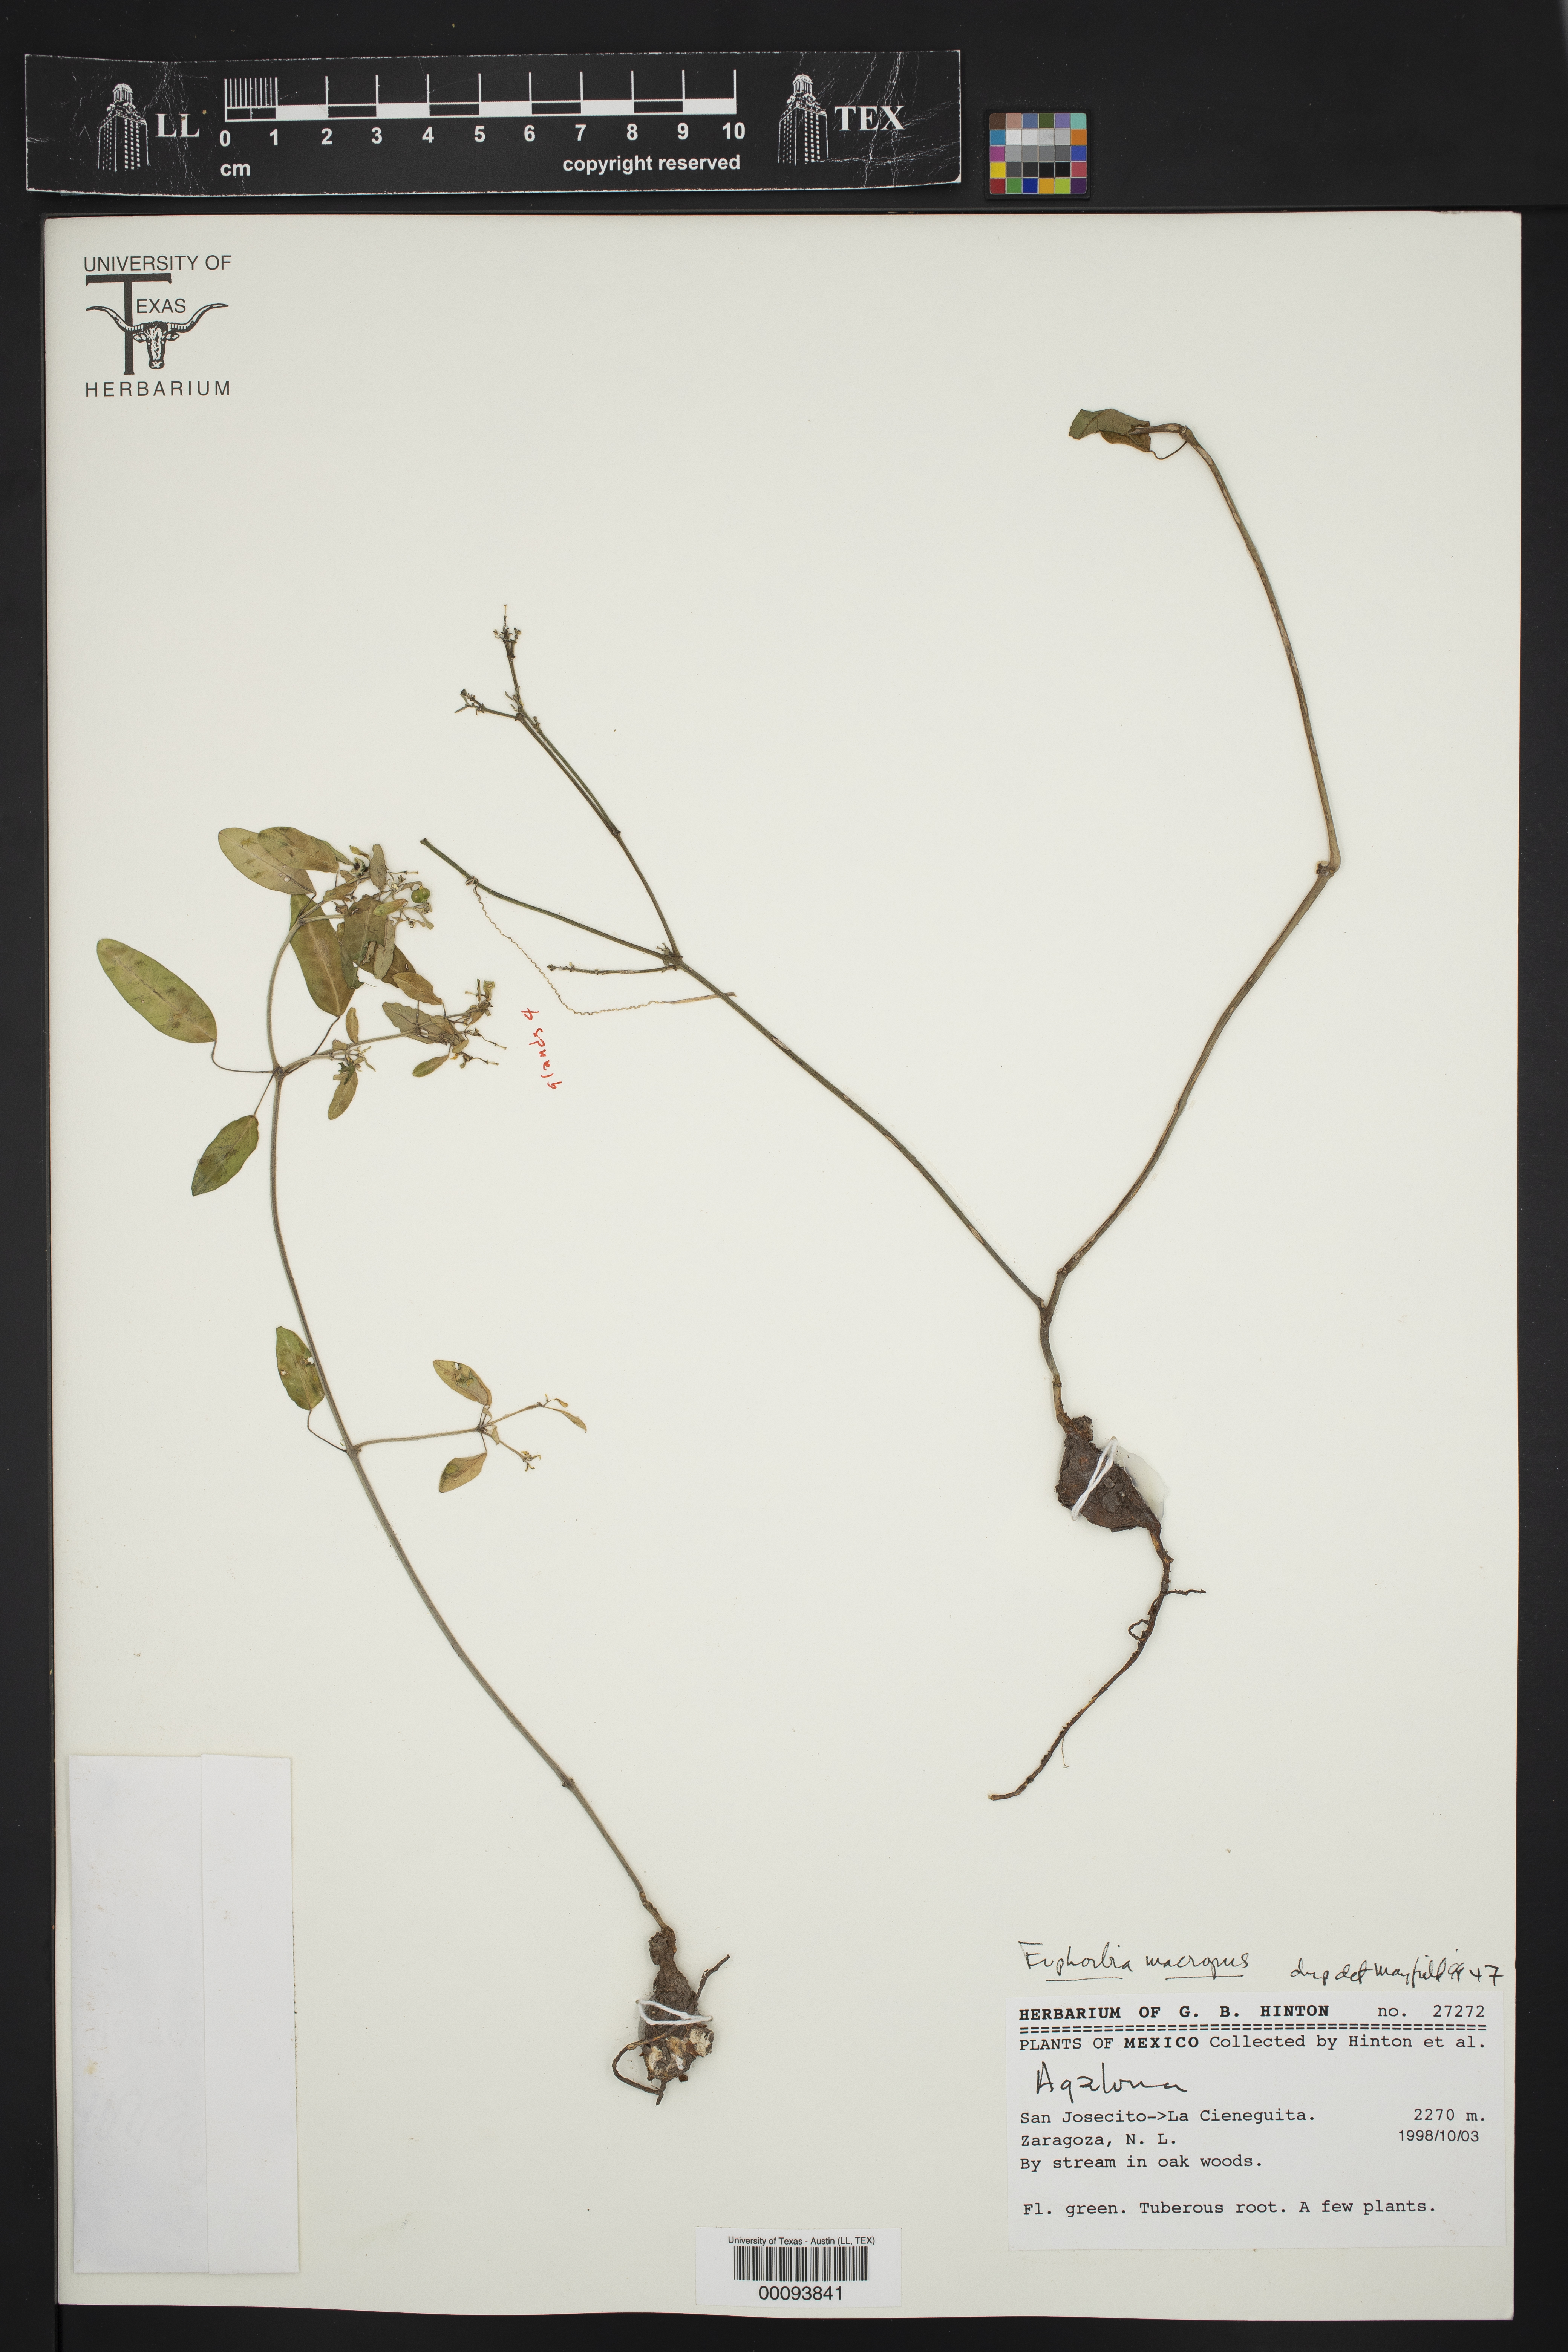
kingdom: Plantae
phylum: Tracheophyta
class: Magnoliopsida
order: Malpighiales
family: Euphorbiaceae
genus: Euphorbia
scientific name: Euphorbia macropus
